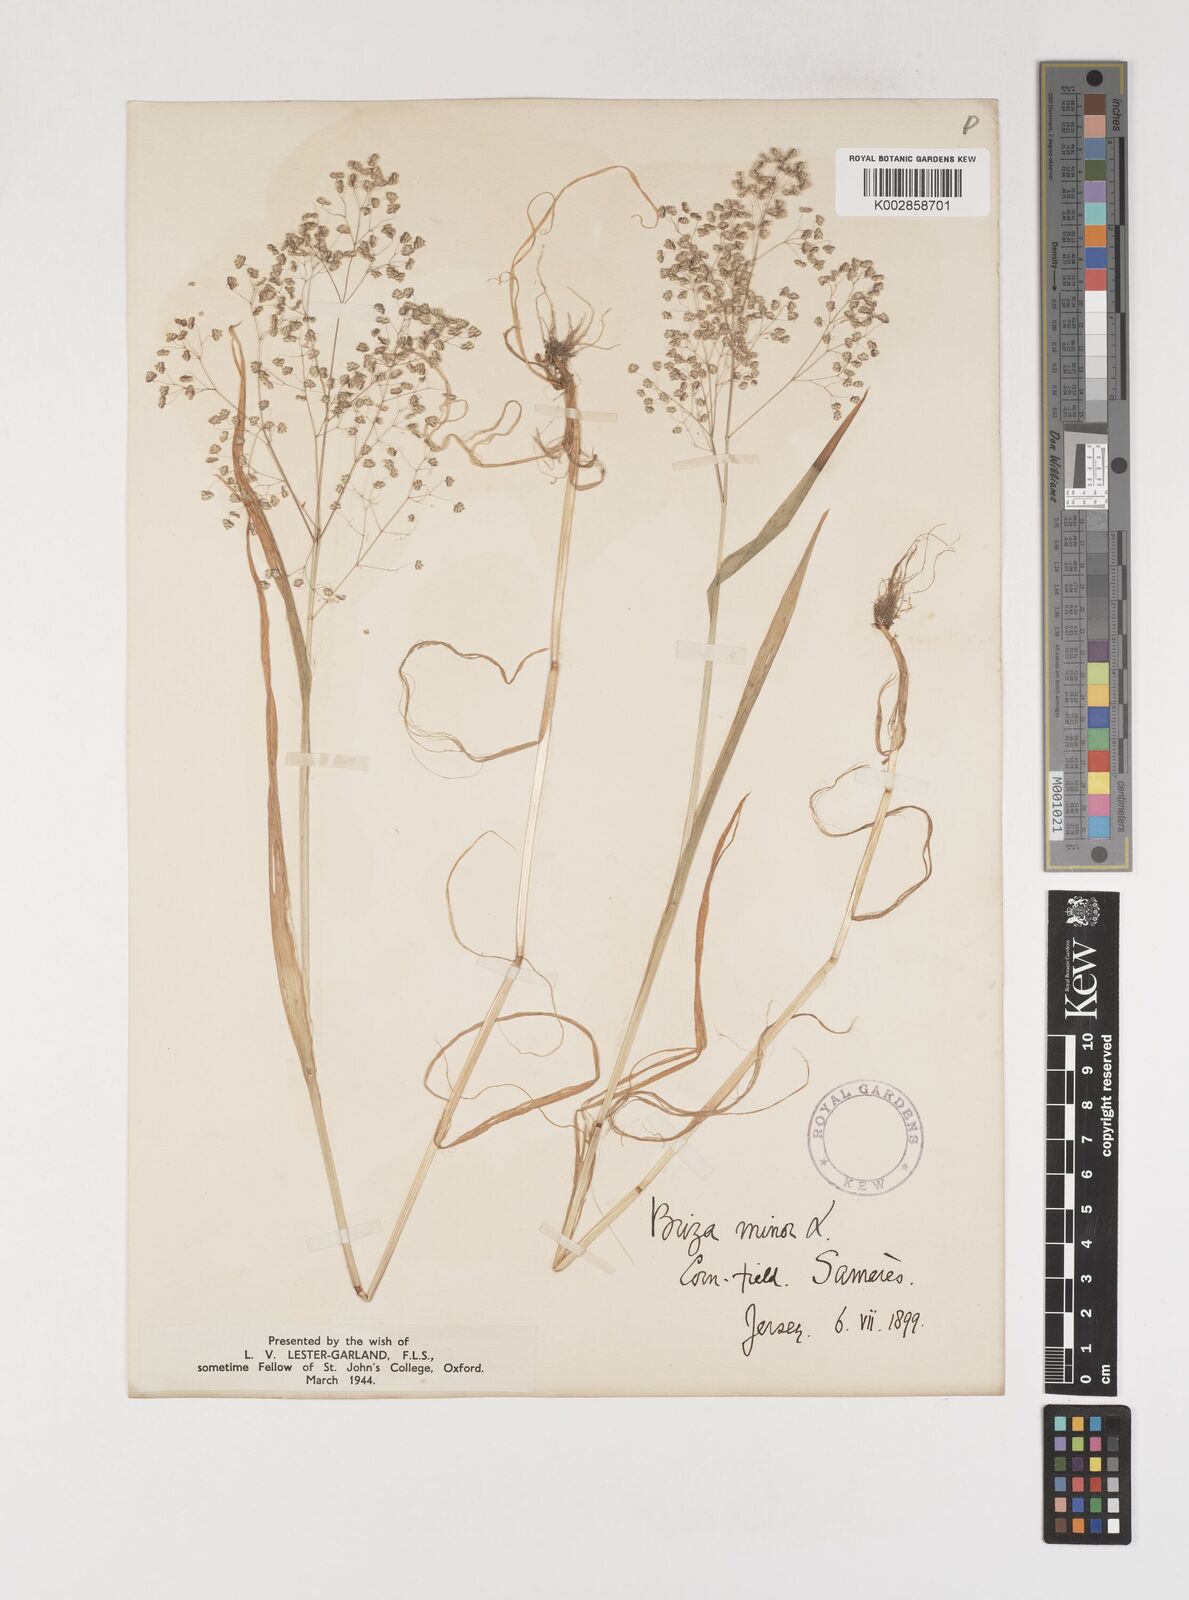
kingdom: Plantae
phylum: Tracheophyta
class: Liliopsida
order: Poales
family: Poaceae
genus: Briza
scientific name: Briza minor
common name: Lesser quaking-grass
